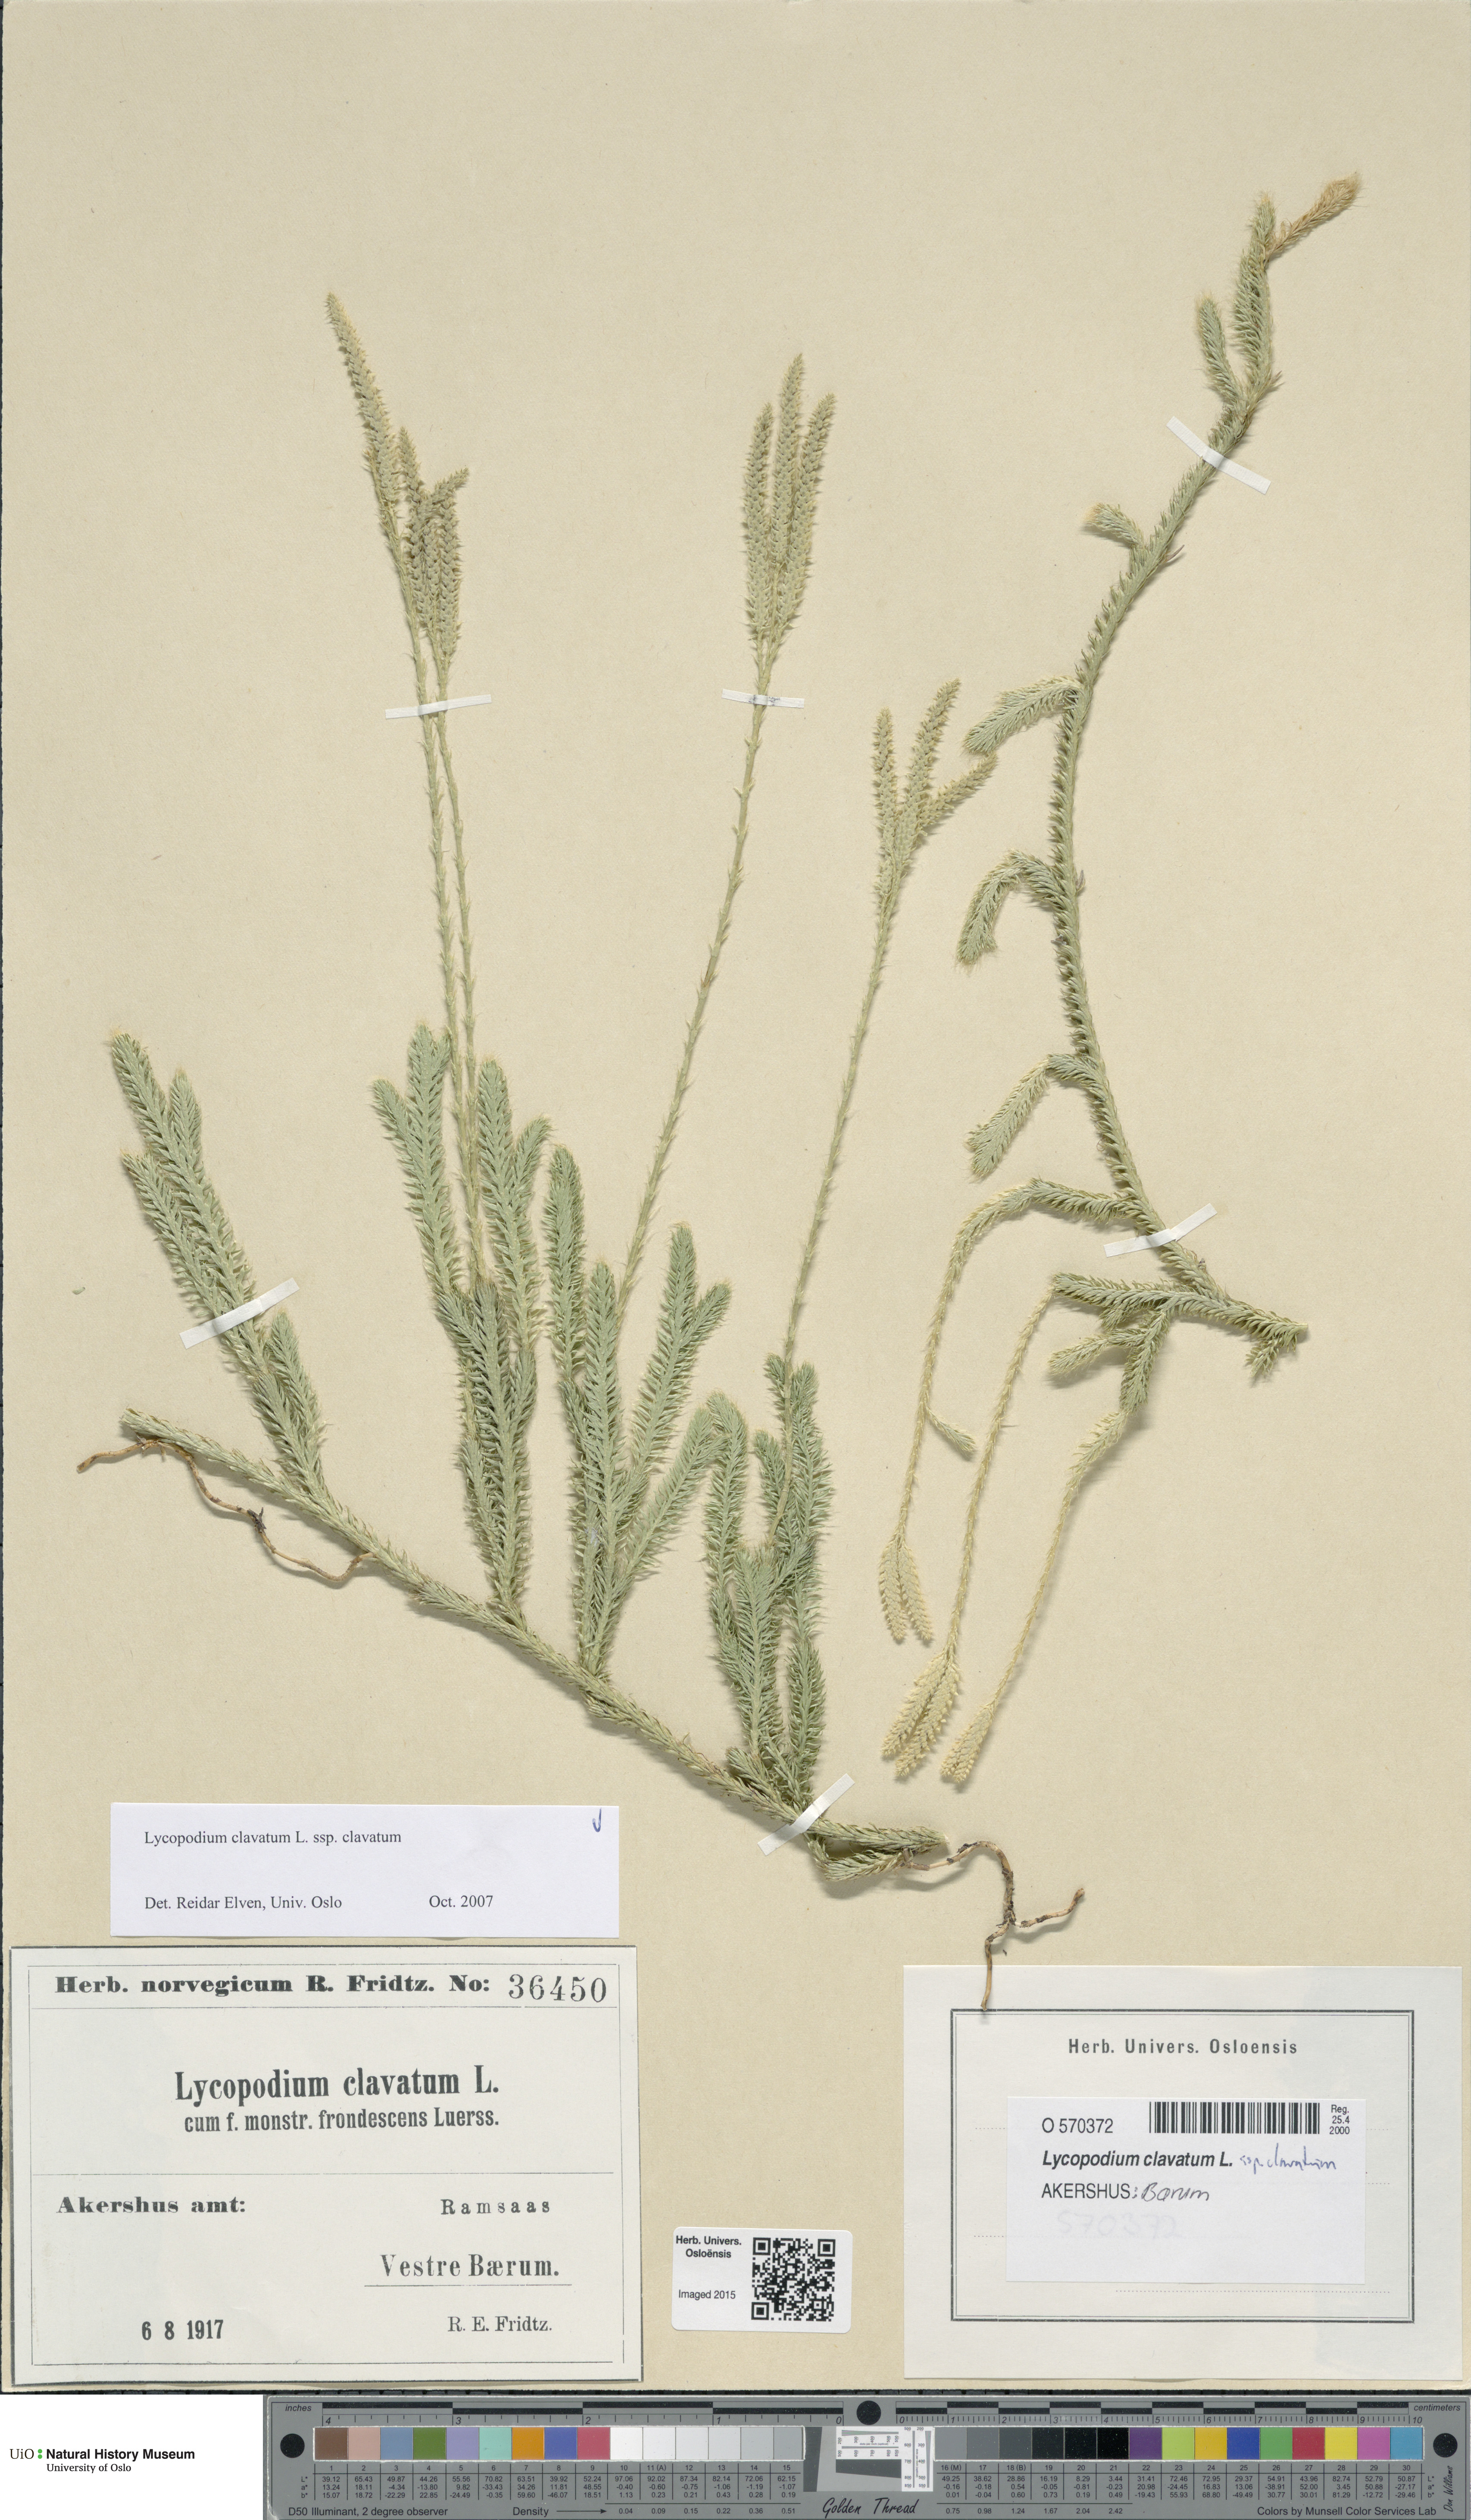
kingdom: Plantae
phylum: Tracheophyta
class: Lycopodiopsida
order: Lycopodiales
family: Lycopodiaceae
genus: Lycopodium
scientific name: Lycopodium clavatum
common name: Stag's-horn clubmoss
